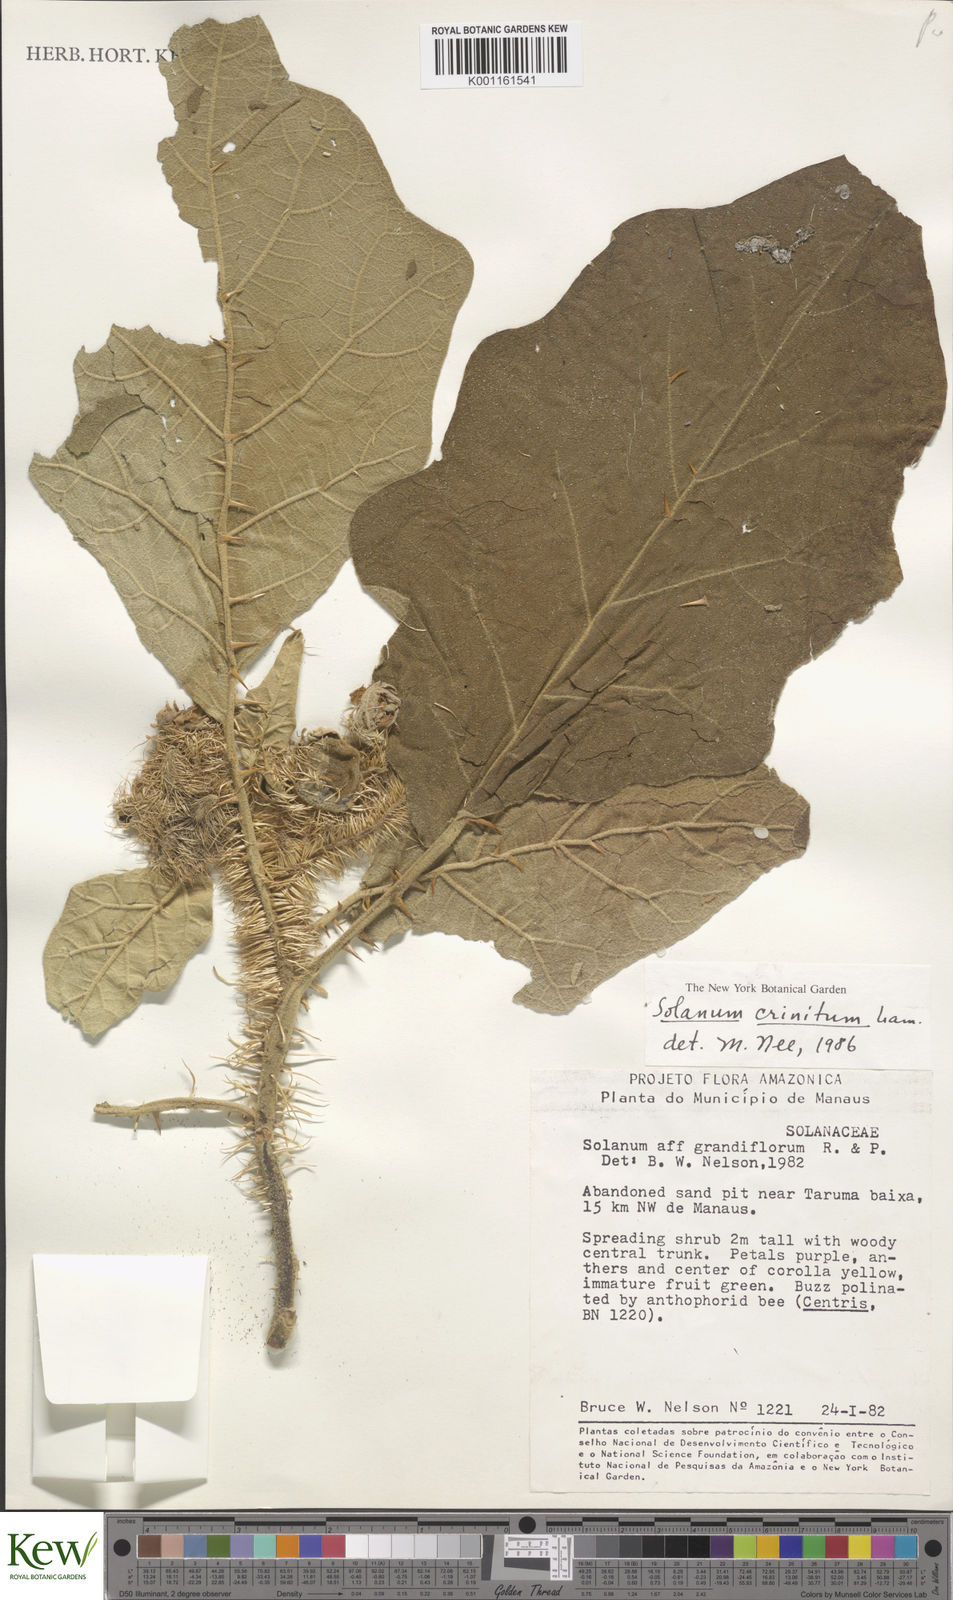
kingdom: Plantae
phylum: Tracheophyta
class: Magnoliopsida
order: Solanales
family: Solanaceae
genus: Solanum
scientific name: Solanum crinitum
